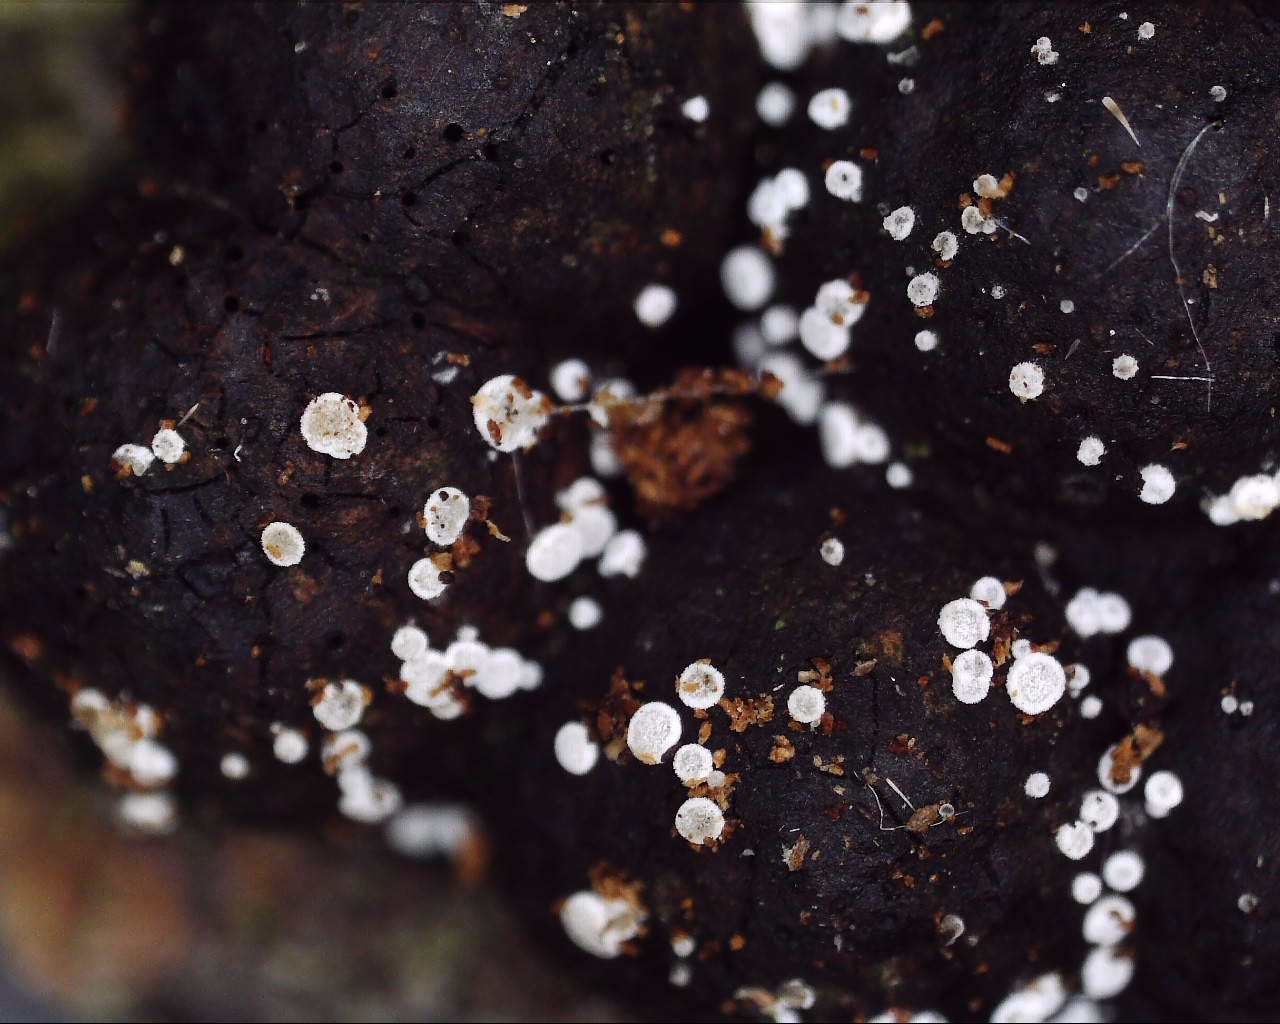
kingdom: Fungi
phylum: Ascomycota
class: Leotiomycetes
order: Helotiales
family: Hyaloscyphaceae
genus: Polydesmia
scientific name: Polydesmia pruinosa
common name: dunskive
